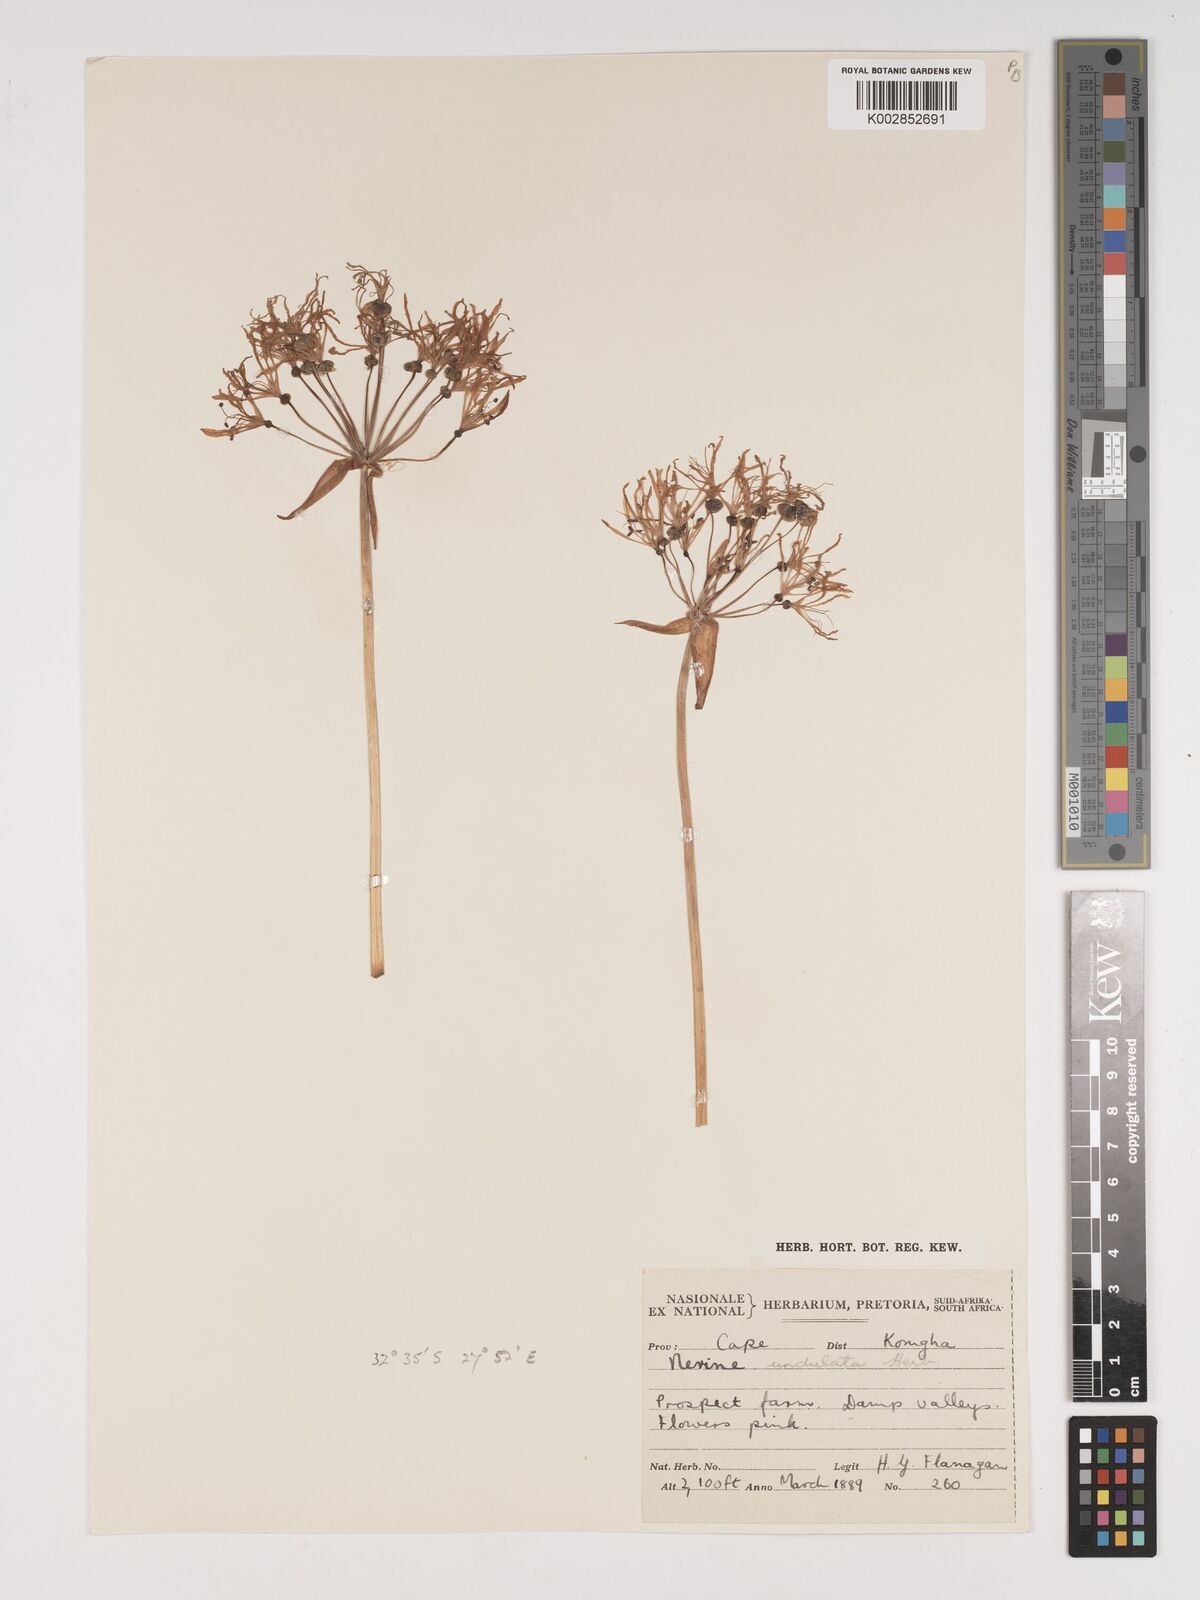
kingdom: Plantae
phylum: Tracheophyta
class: Liliopsida
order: Asparagales
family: Amaryllidaceae
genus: Nerine
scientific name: Nerine undulata
